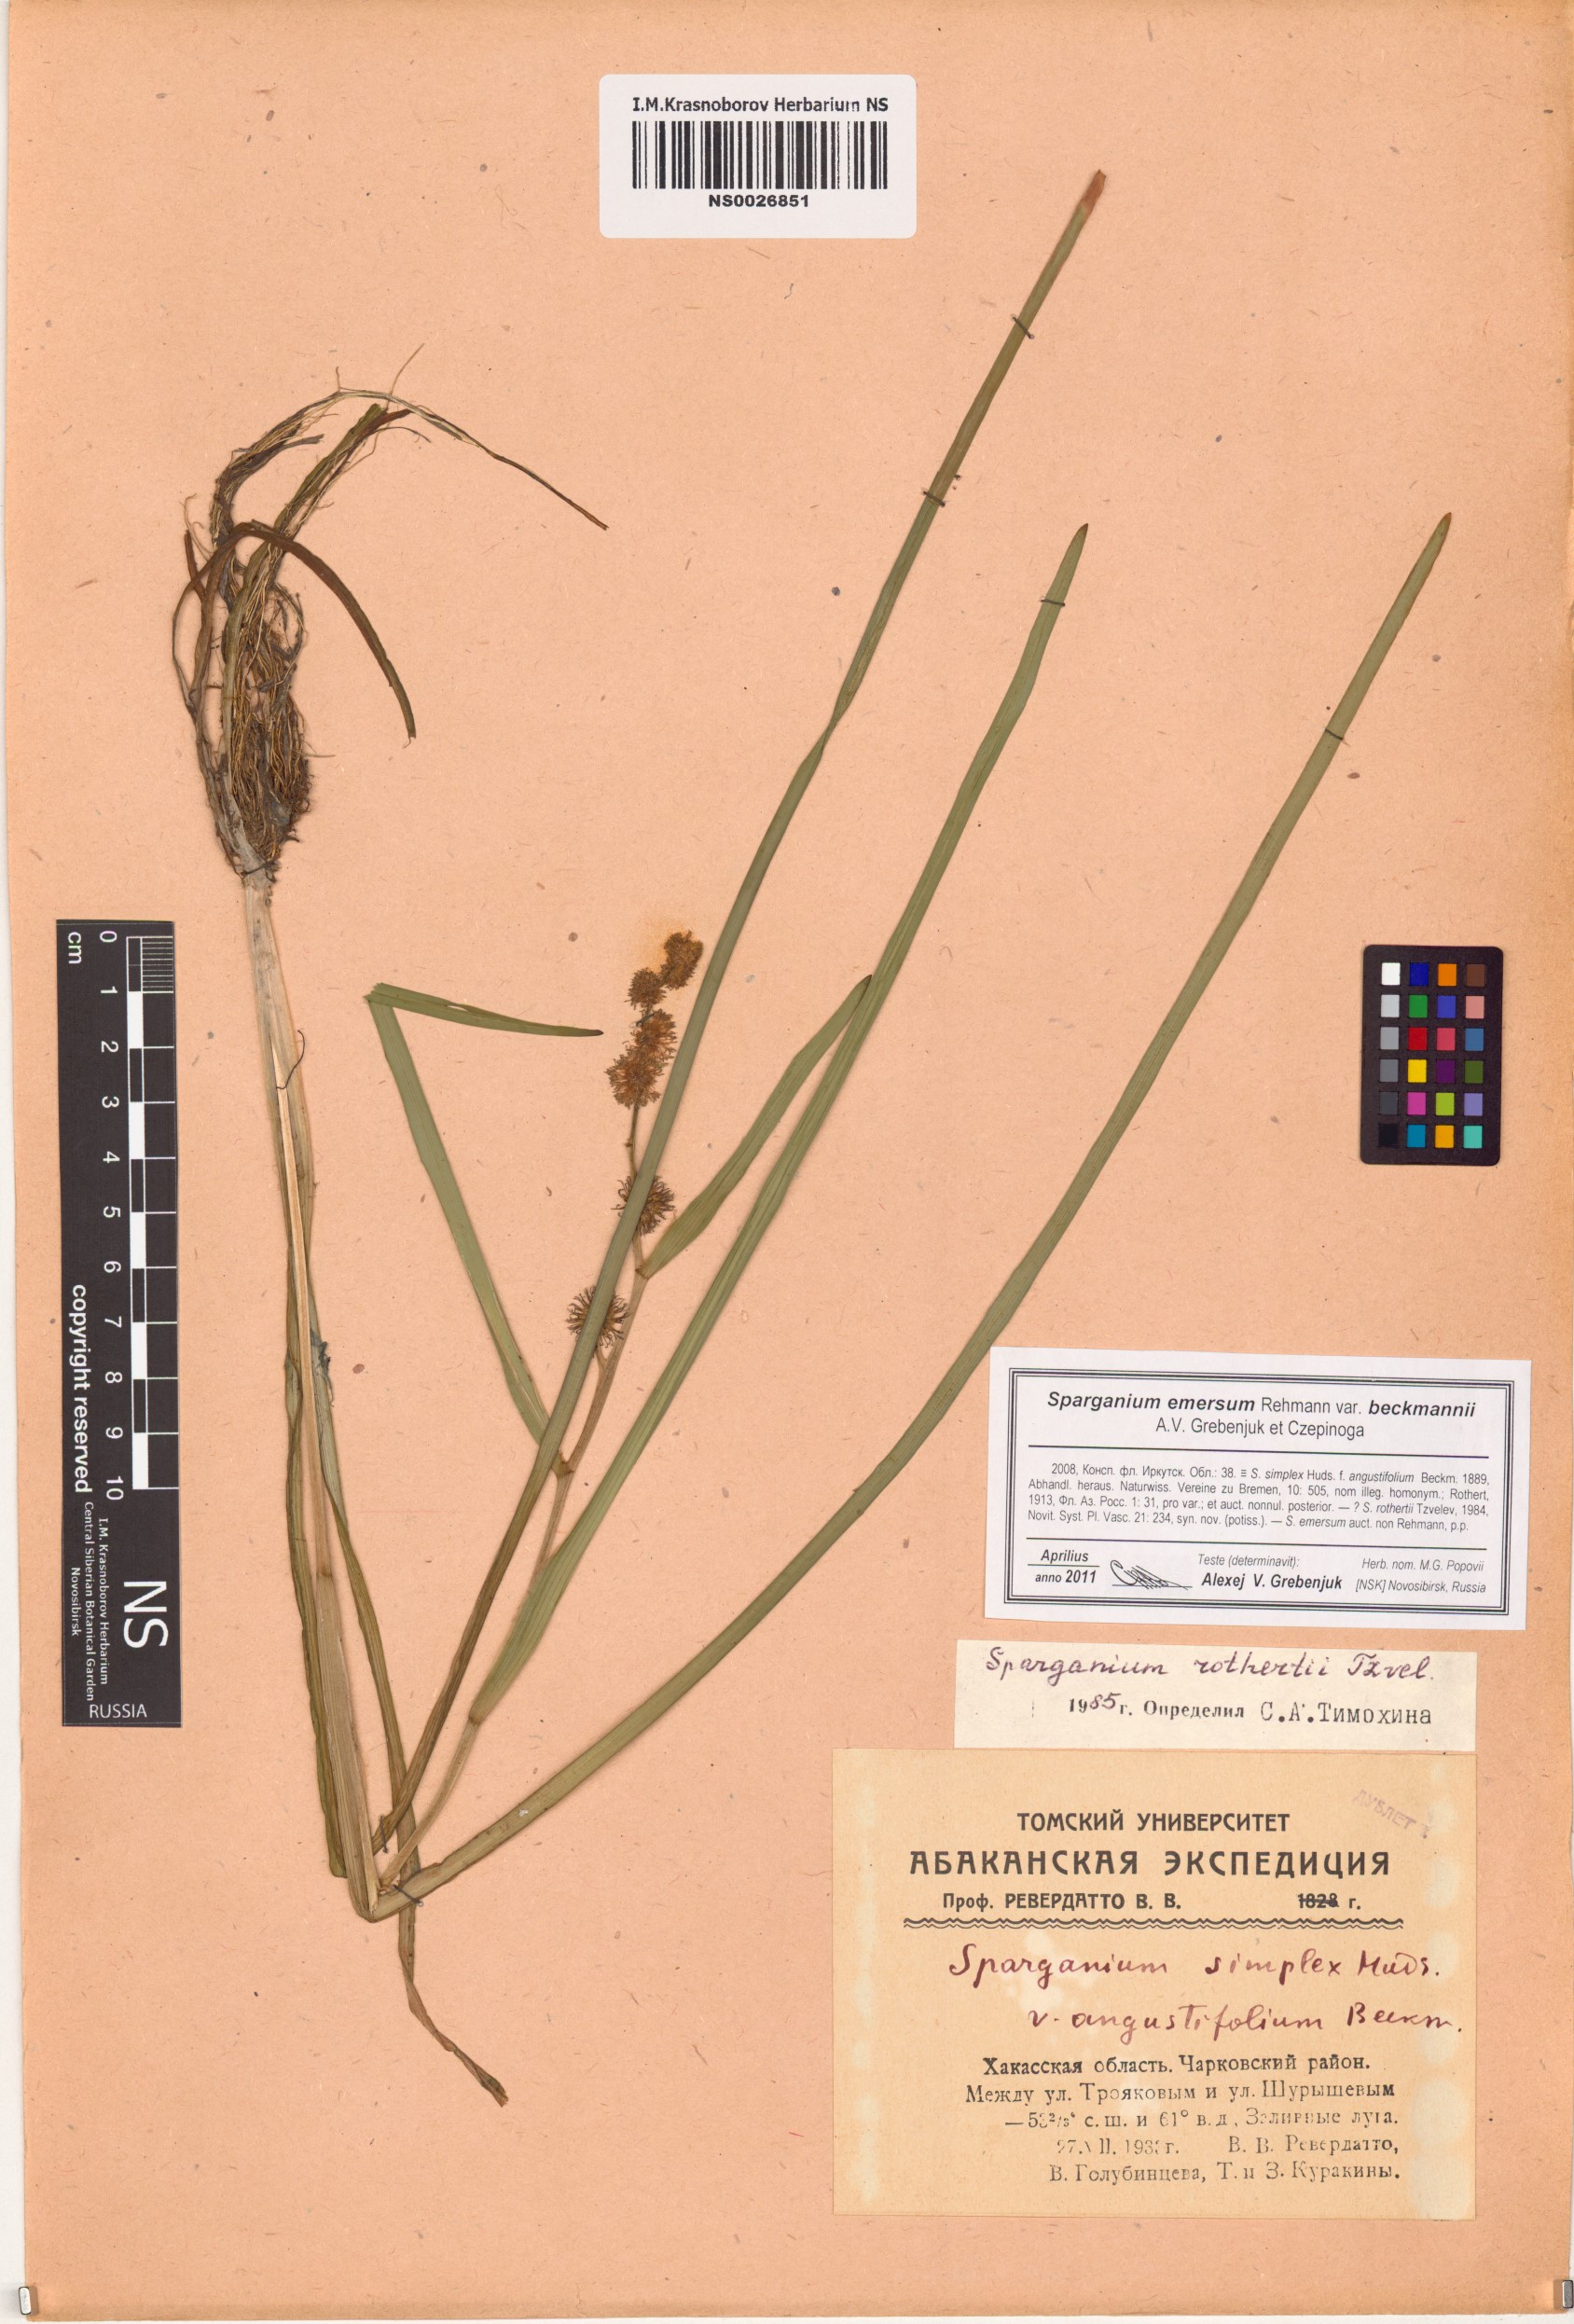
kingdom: Plantae
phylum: Tracheophyta
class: Liliopsida
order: Poales
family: Typhaceae
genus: Sparganium
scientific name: Sparganium emersum
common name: Unbranched bur-reed
